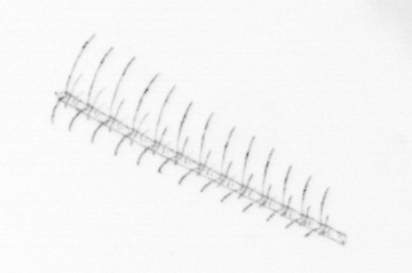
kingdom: Chromista
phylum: Ochrophyta
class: Bacillariophyceae
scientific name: Bacillariophyceae
